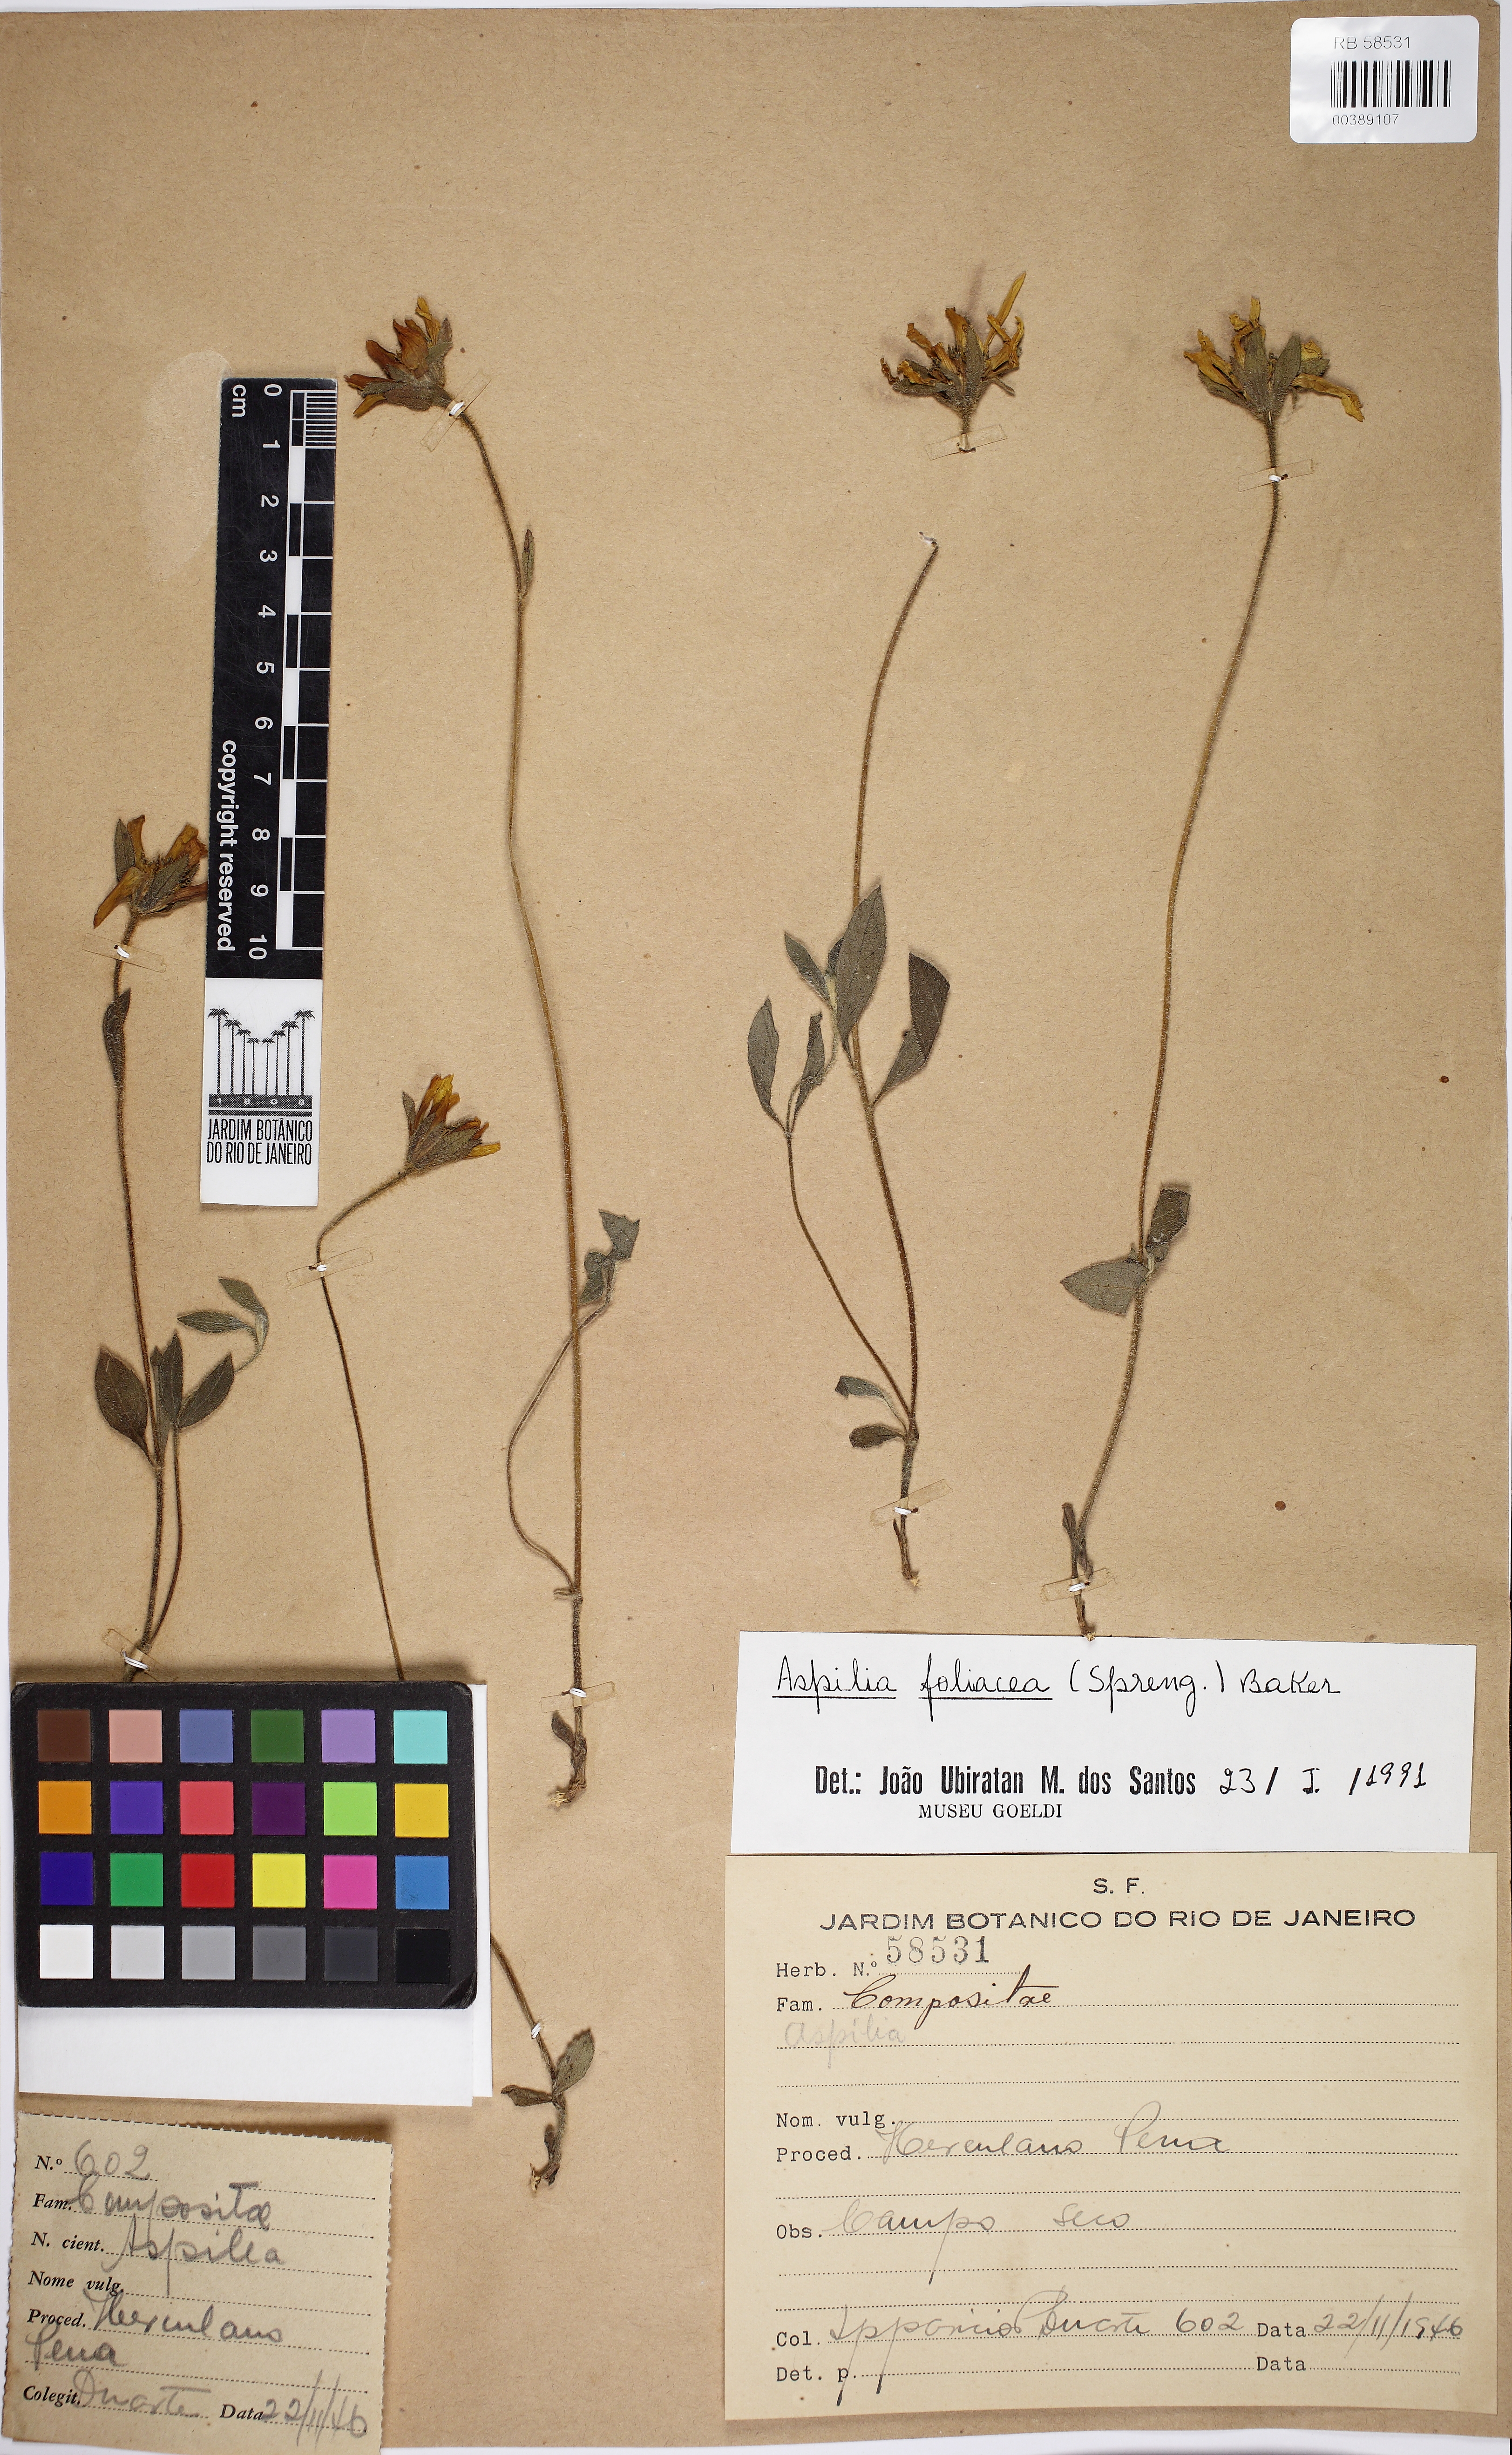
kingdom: Plantae
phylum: Tracheophyta
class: Magnoliopsida
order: Asterales
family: Asteraceae
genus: Wedelia
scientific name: Wedelia foliacea
